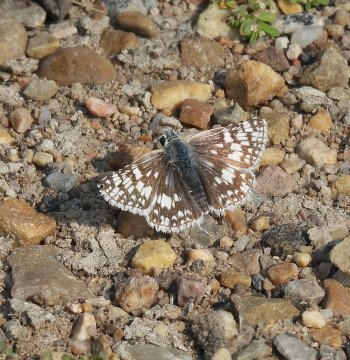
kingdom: Animalia
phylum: Arthropoda
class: Insecta
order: Lepidoptera
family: Hesperiidae
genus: Pyrgus
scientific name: Pyrgus communis
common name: Common Checkered-Skipper
